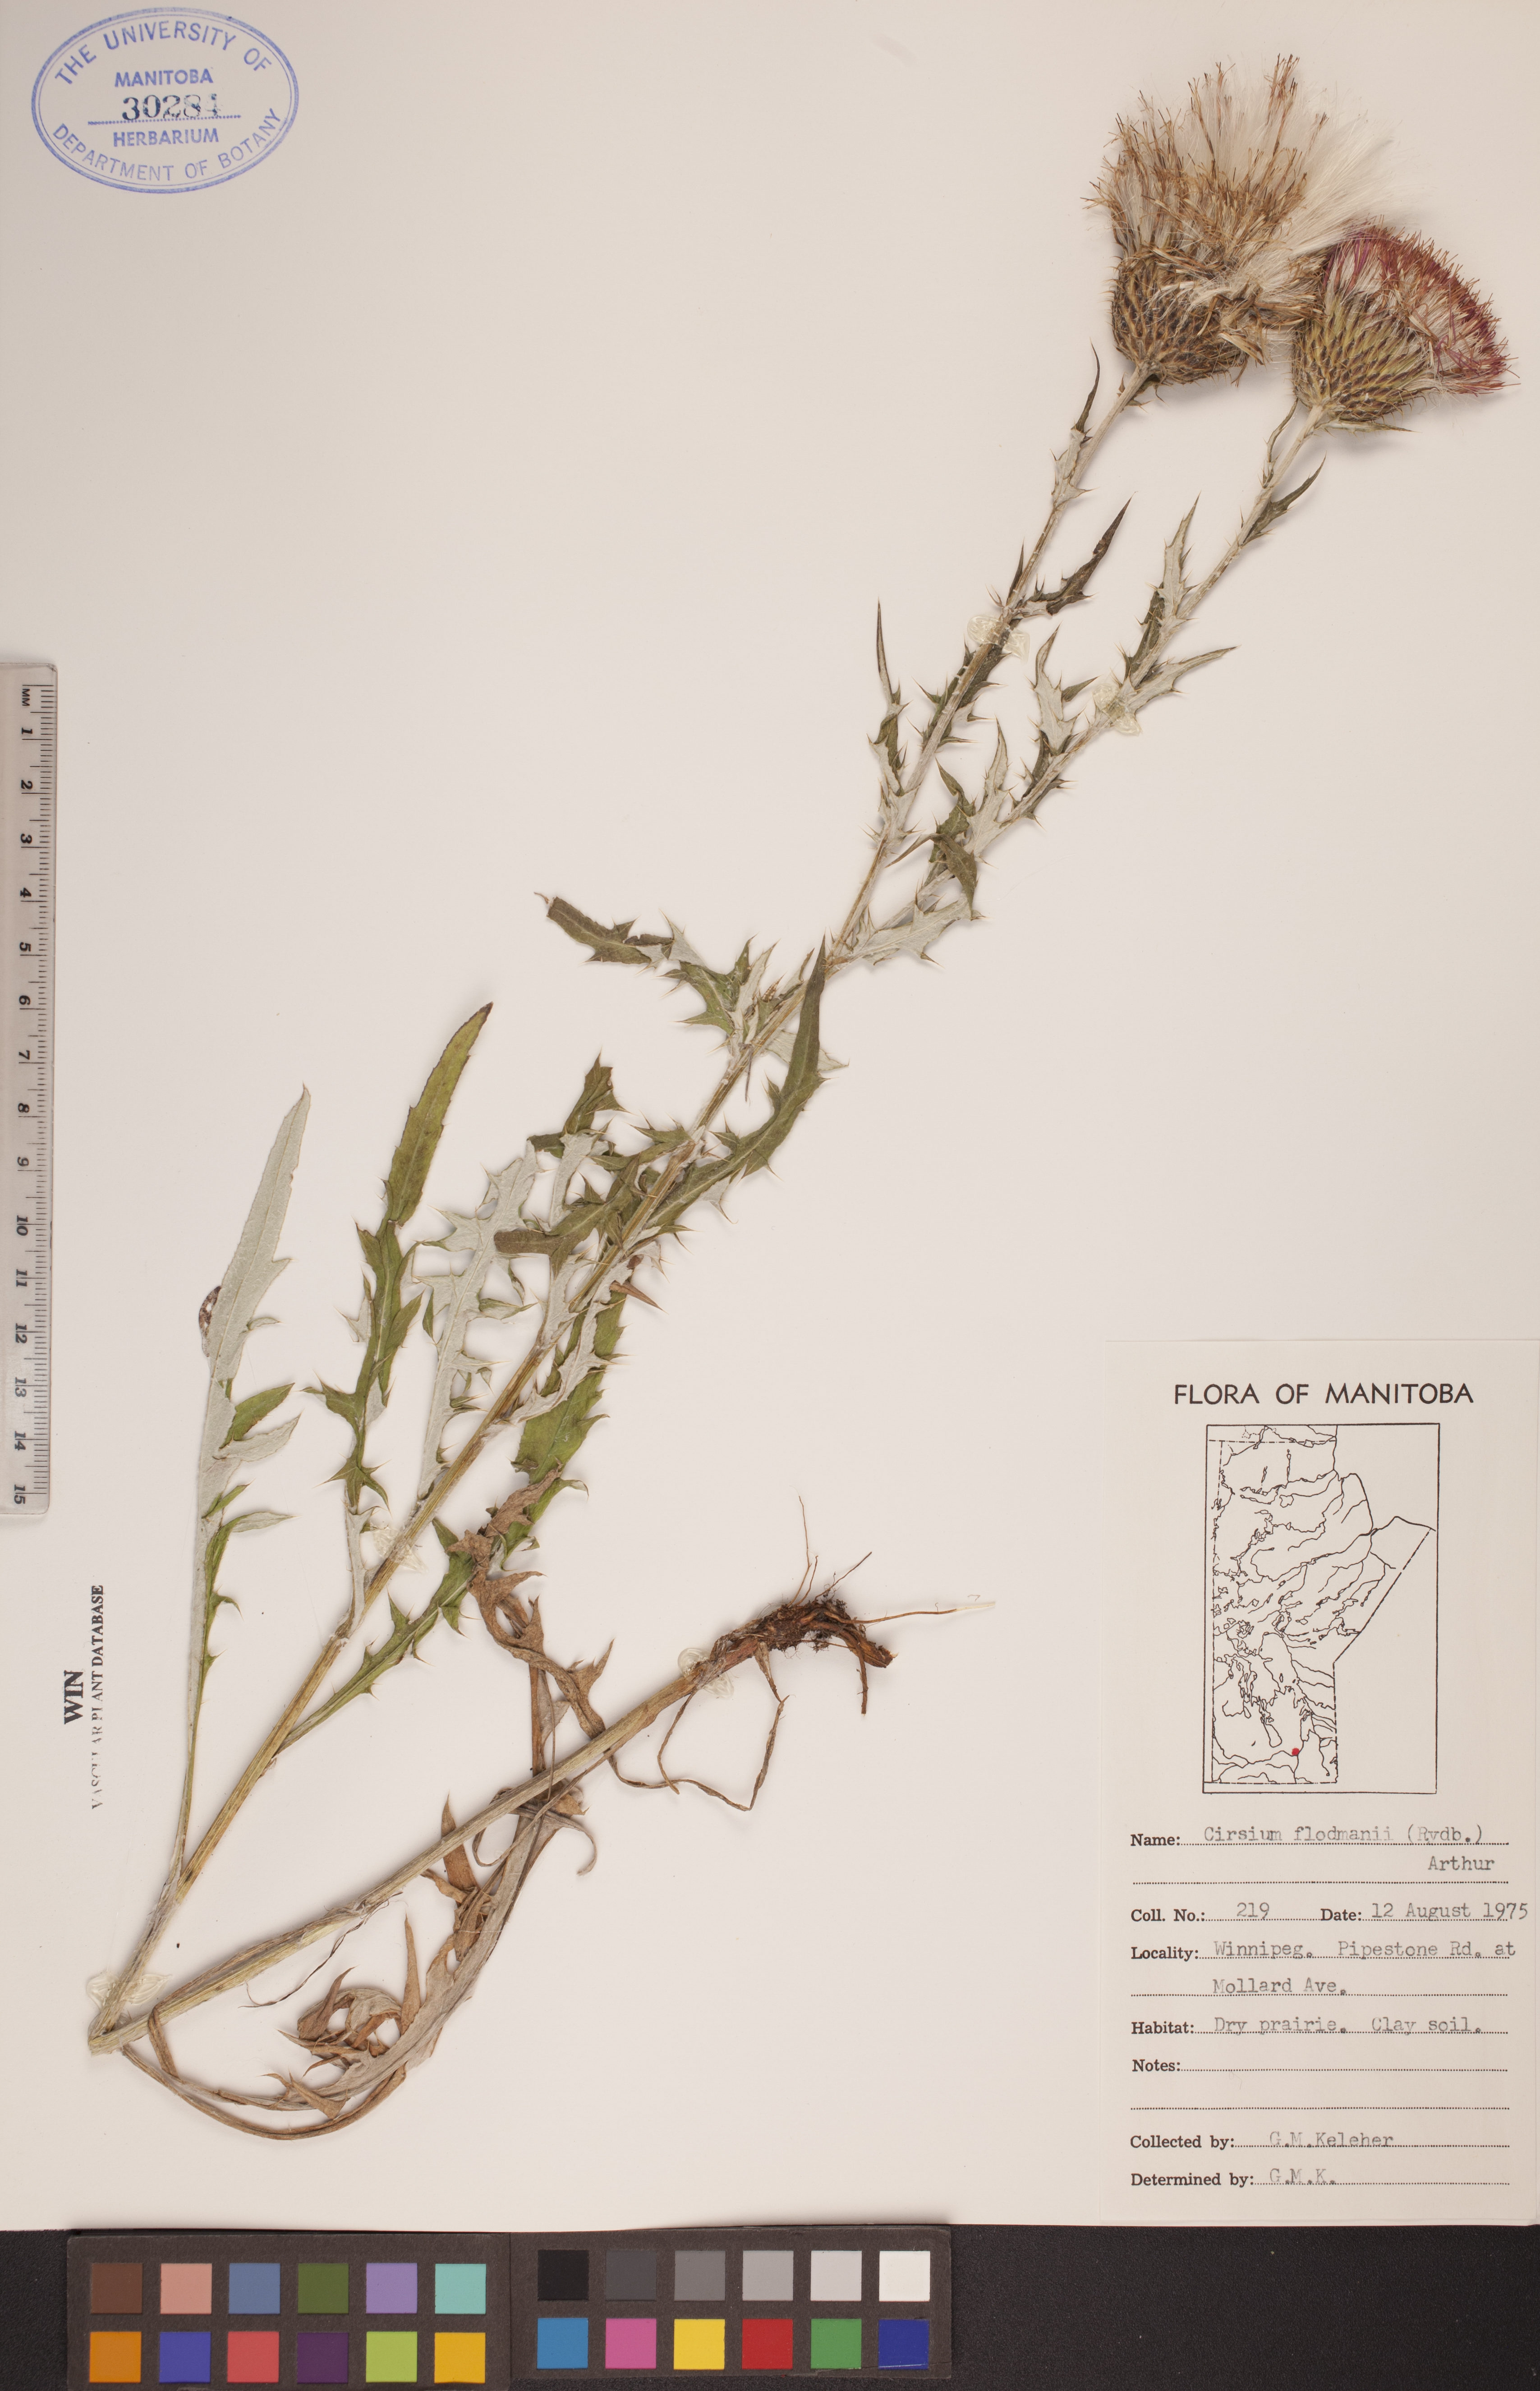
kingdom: Plantae
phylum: Tracheophyta
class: Magnoliopsida
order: Asterales
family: Asteraceae
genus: Cirsium
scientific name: Cirsium flodmanii
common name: Flodman's thistle
